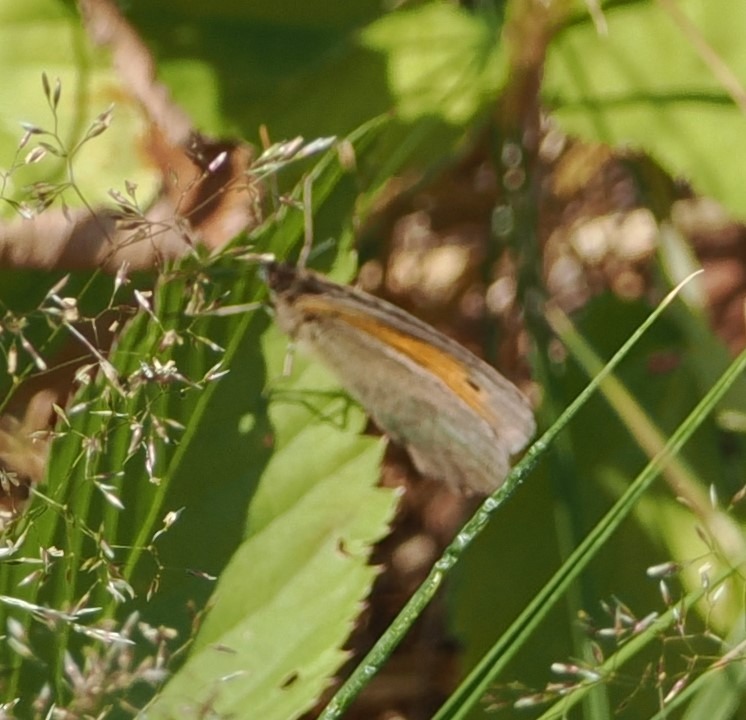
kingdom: Animalia
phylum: Arthropoda
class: Insecta
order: Lepidoptera
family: Nymphalidae
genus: Maniola
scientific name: Maniola jurtina
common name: Græsrandøje
